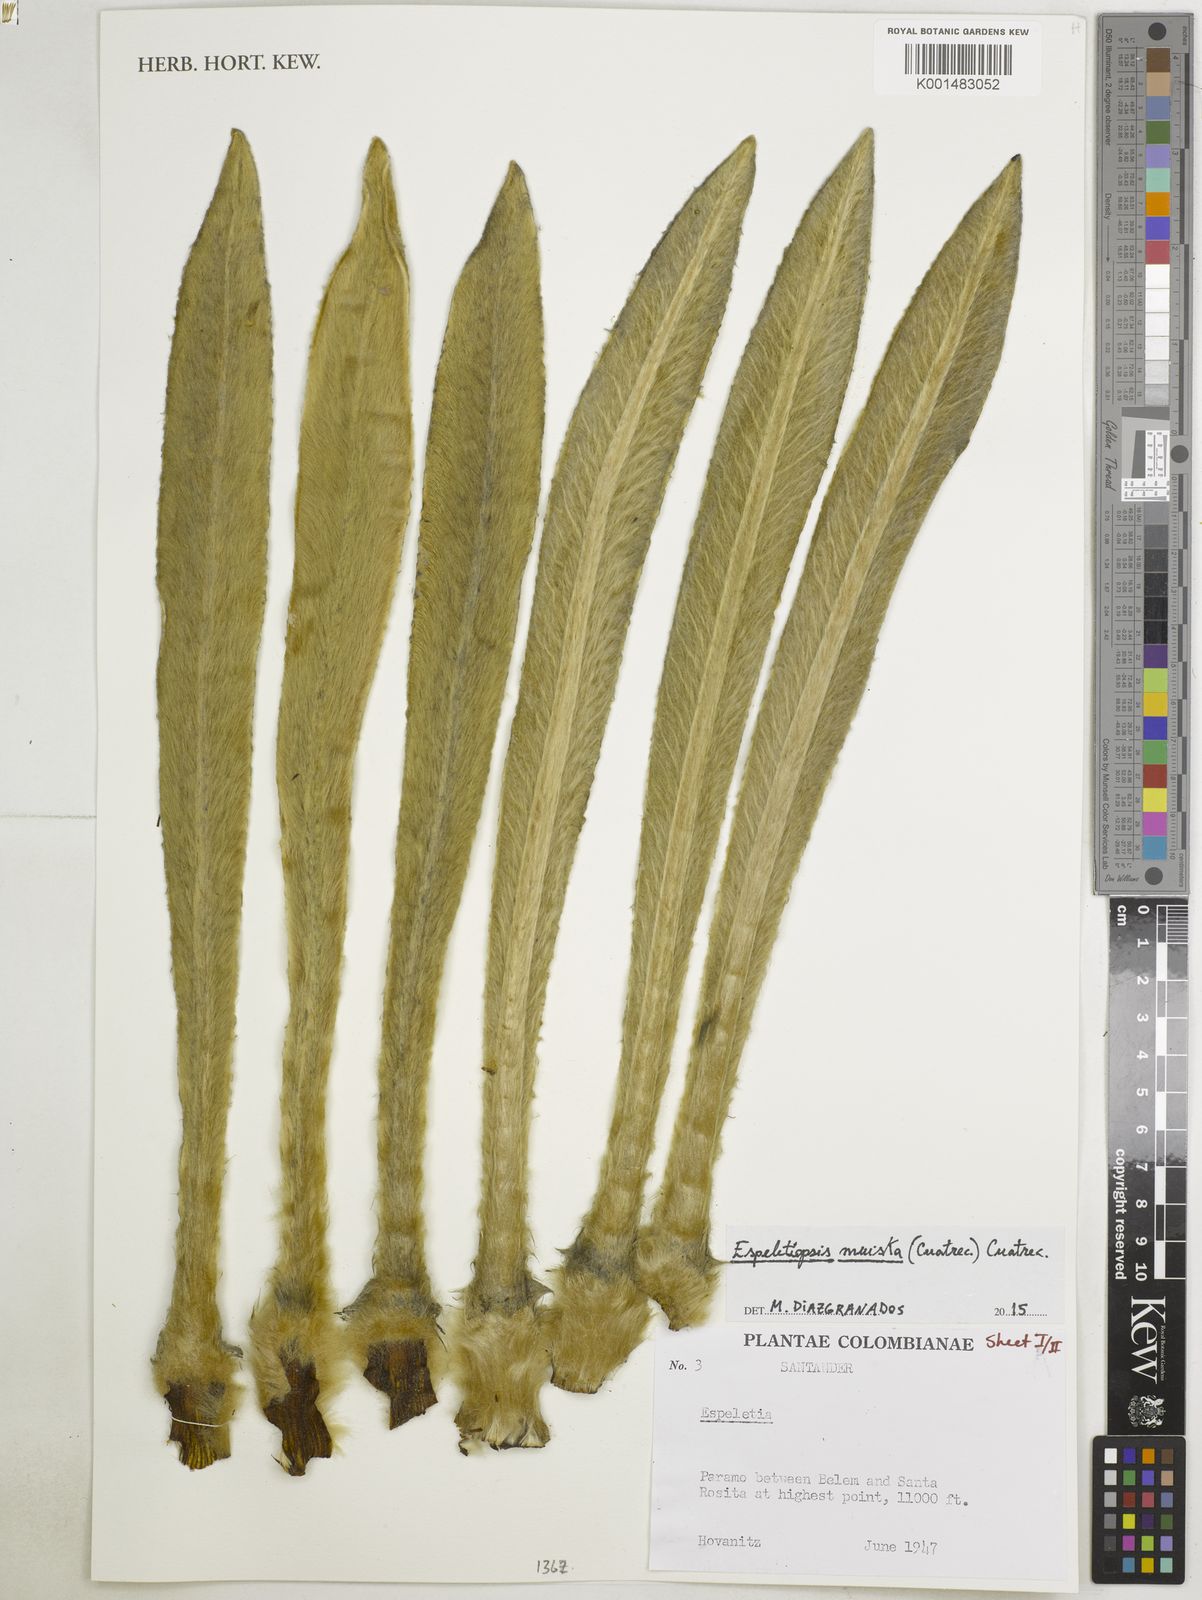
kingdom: Plantae
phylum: Tracheophyta
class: Magnoliopsida
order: Asterales
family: Asteraceae
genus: Espeletia
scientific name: Espeletia muiska
